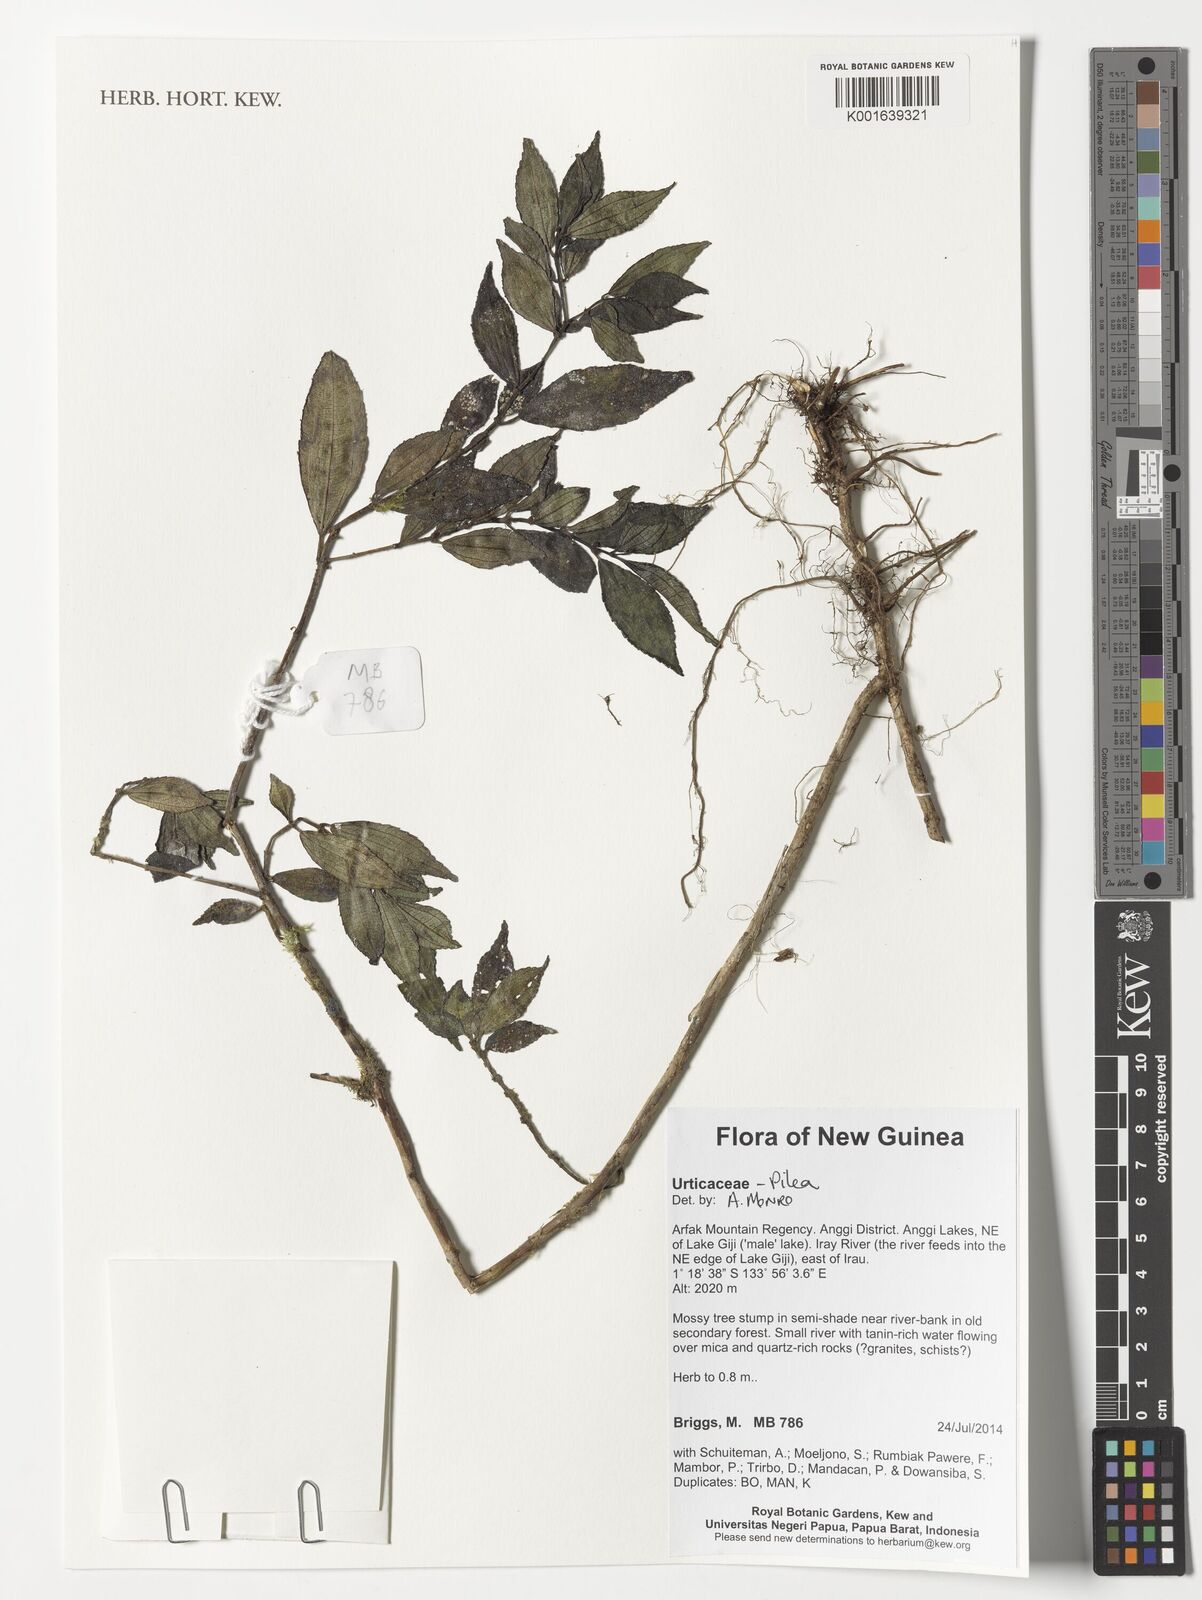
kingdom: Plantae
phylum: Tracheophyta
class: Magnoliopsida
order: Rosales
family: Urticaceae
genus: Pilea
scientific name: Pilea
